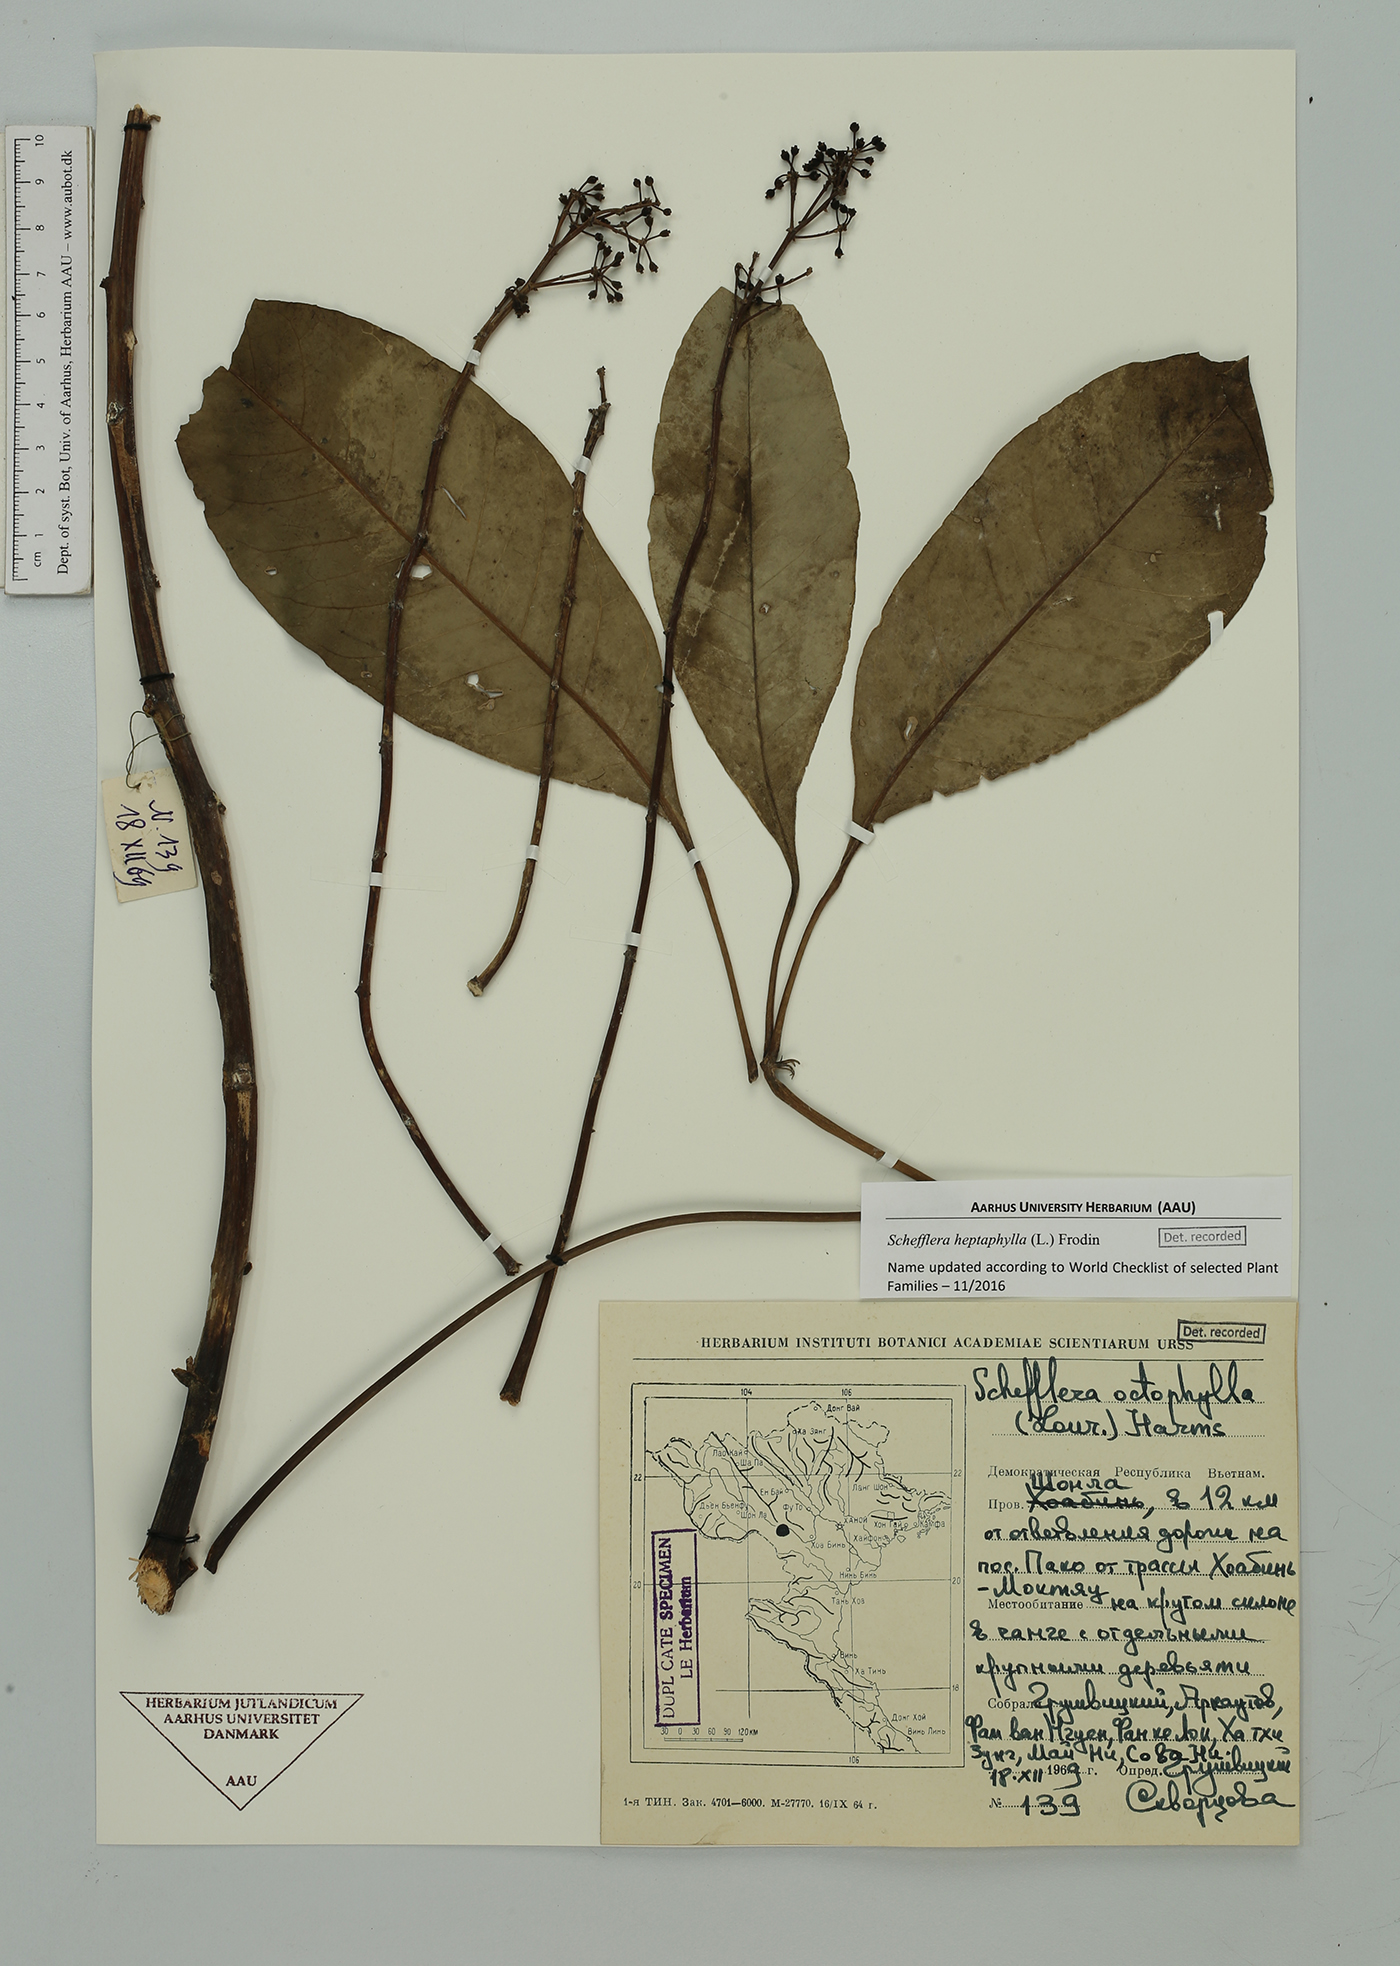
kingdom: Plantae
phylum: Tracheophyta
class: Magnoliopsida
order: Apiales
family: Araliaceae
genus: Heptapleurum
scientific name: Heptapleurum heptaphyllum
